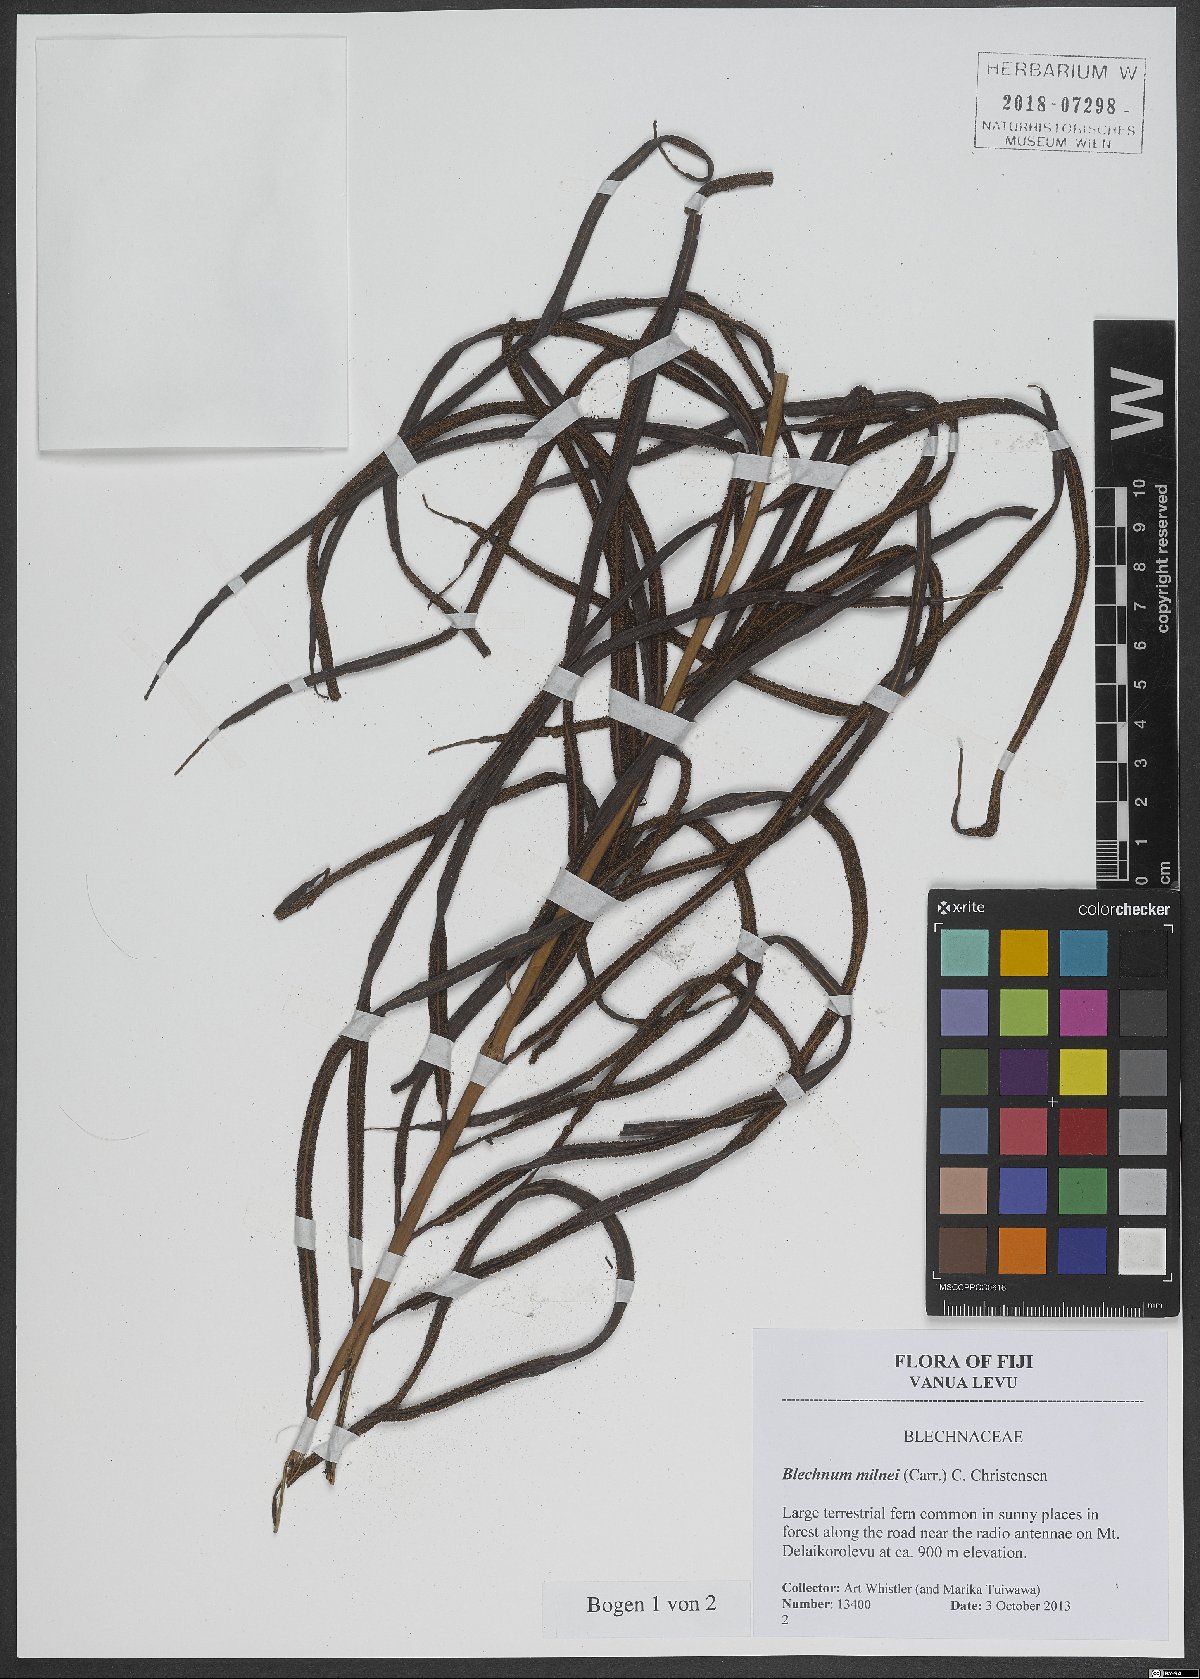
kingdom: Plantae
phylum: Tracheophyta
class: Polypodiopsida
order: Polypodiales
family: Blechnaceae
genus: Parablechnum
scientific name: Parablechnum milnei
